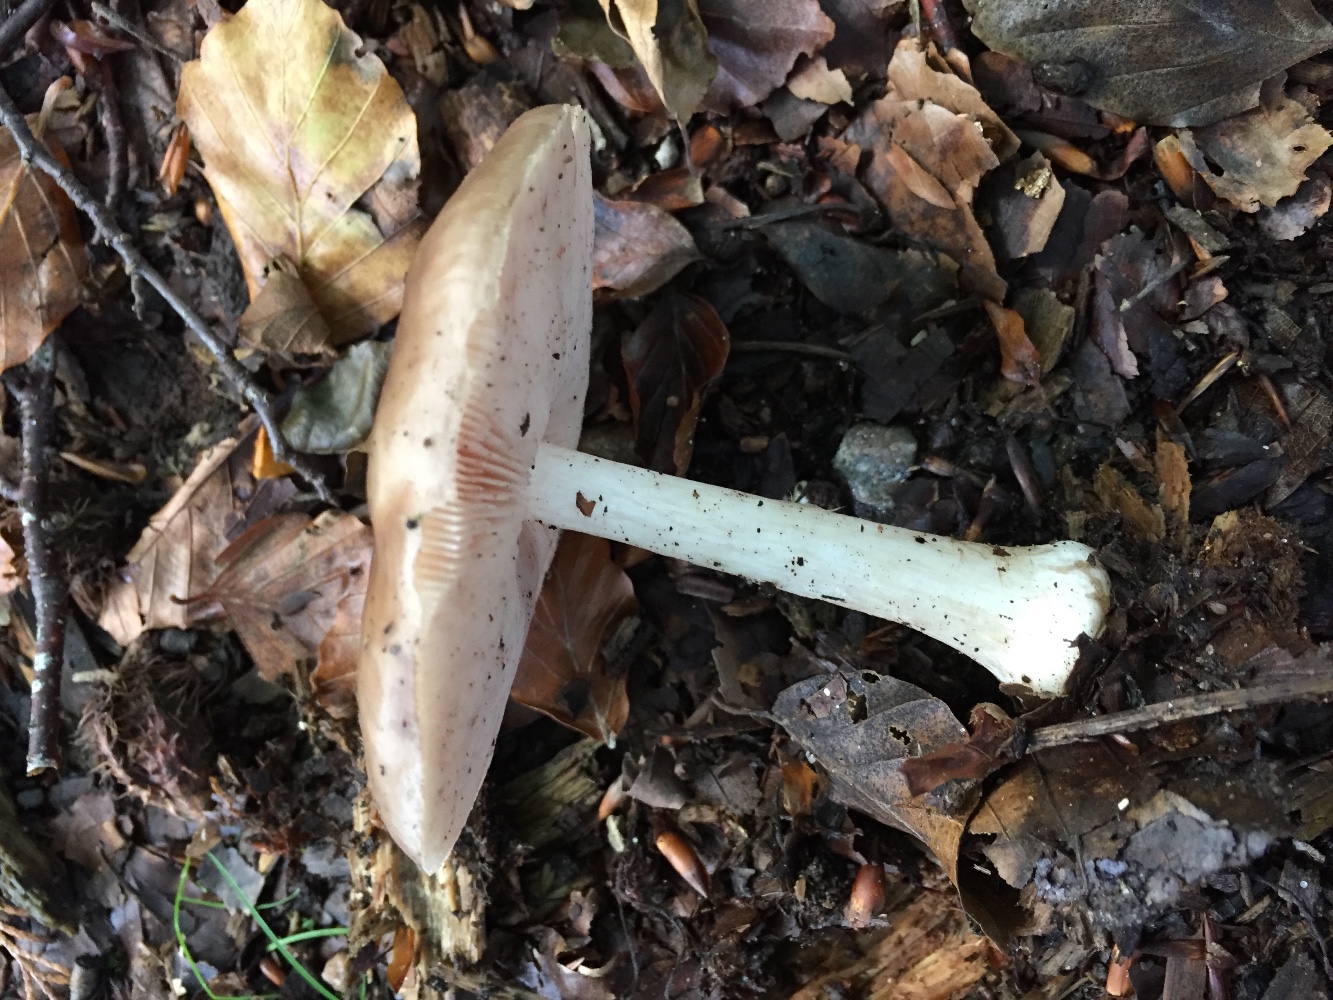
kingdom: Fungi
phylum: Basidiomycota
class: Agaricomycetes
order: Agaricales
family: Pluteaceae
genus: Pluteus
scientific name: Pluteus cervinus
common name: sodfarvet skærmhat
